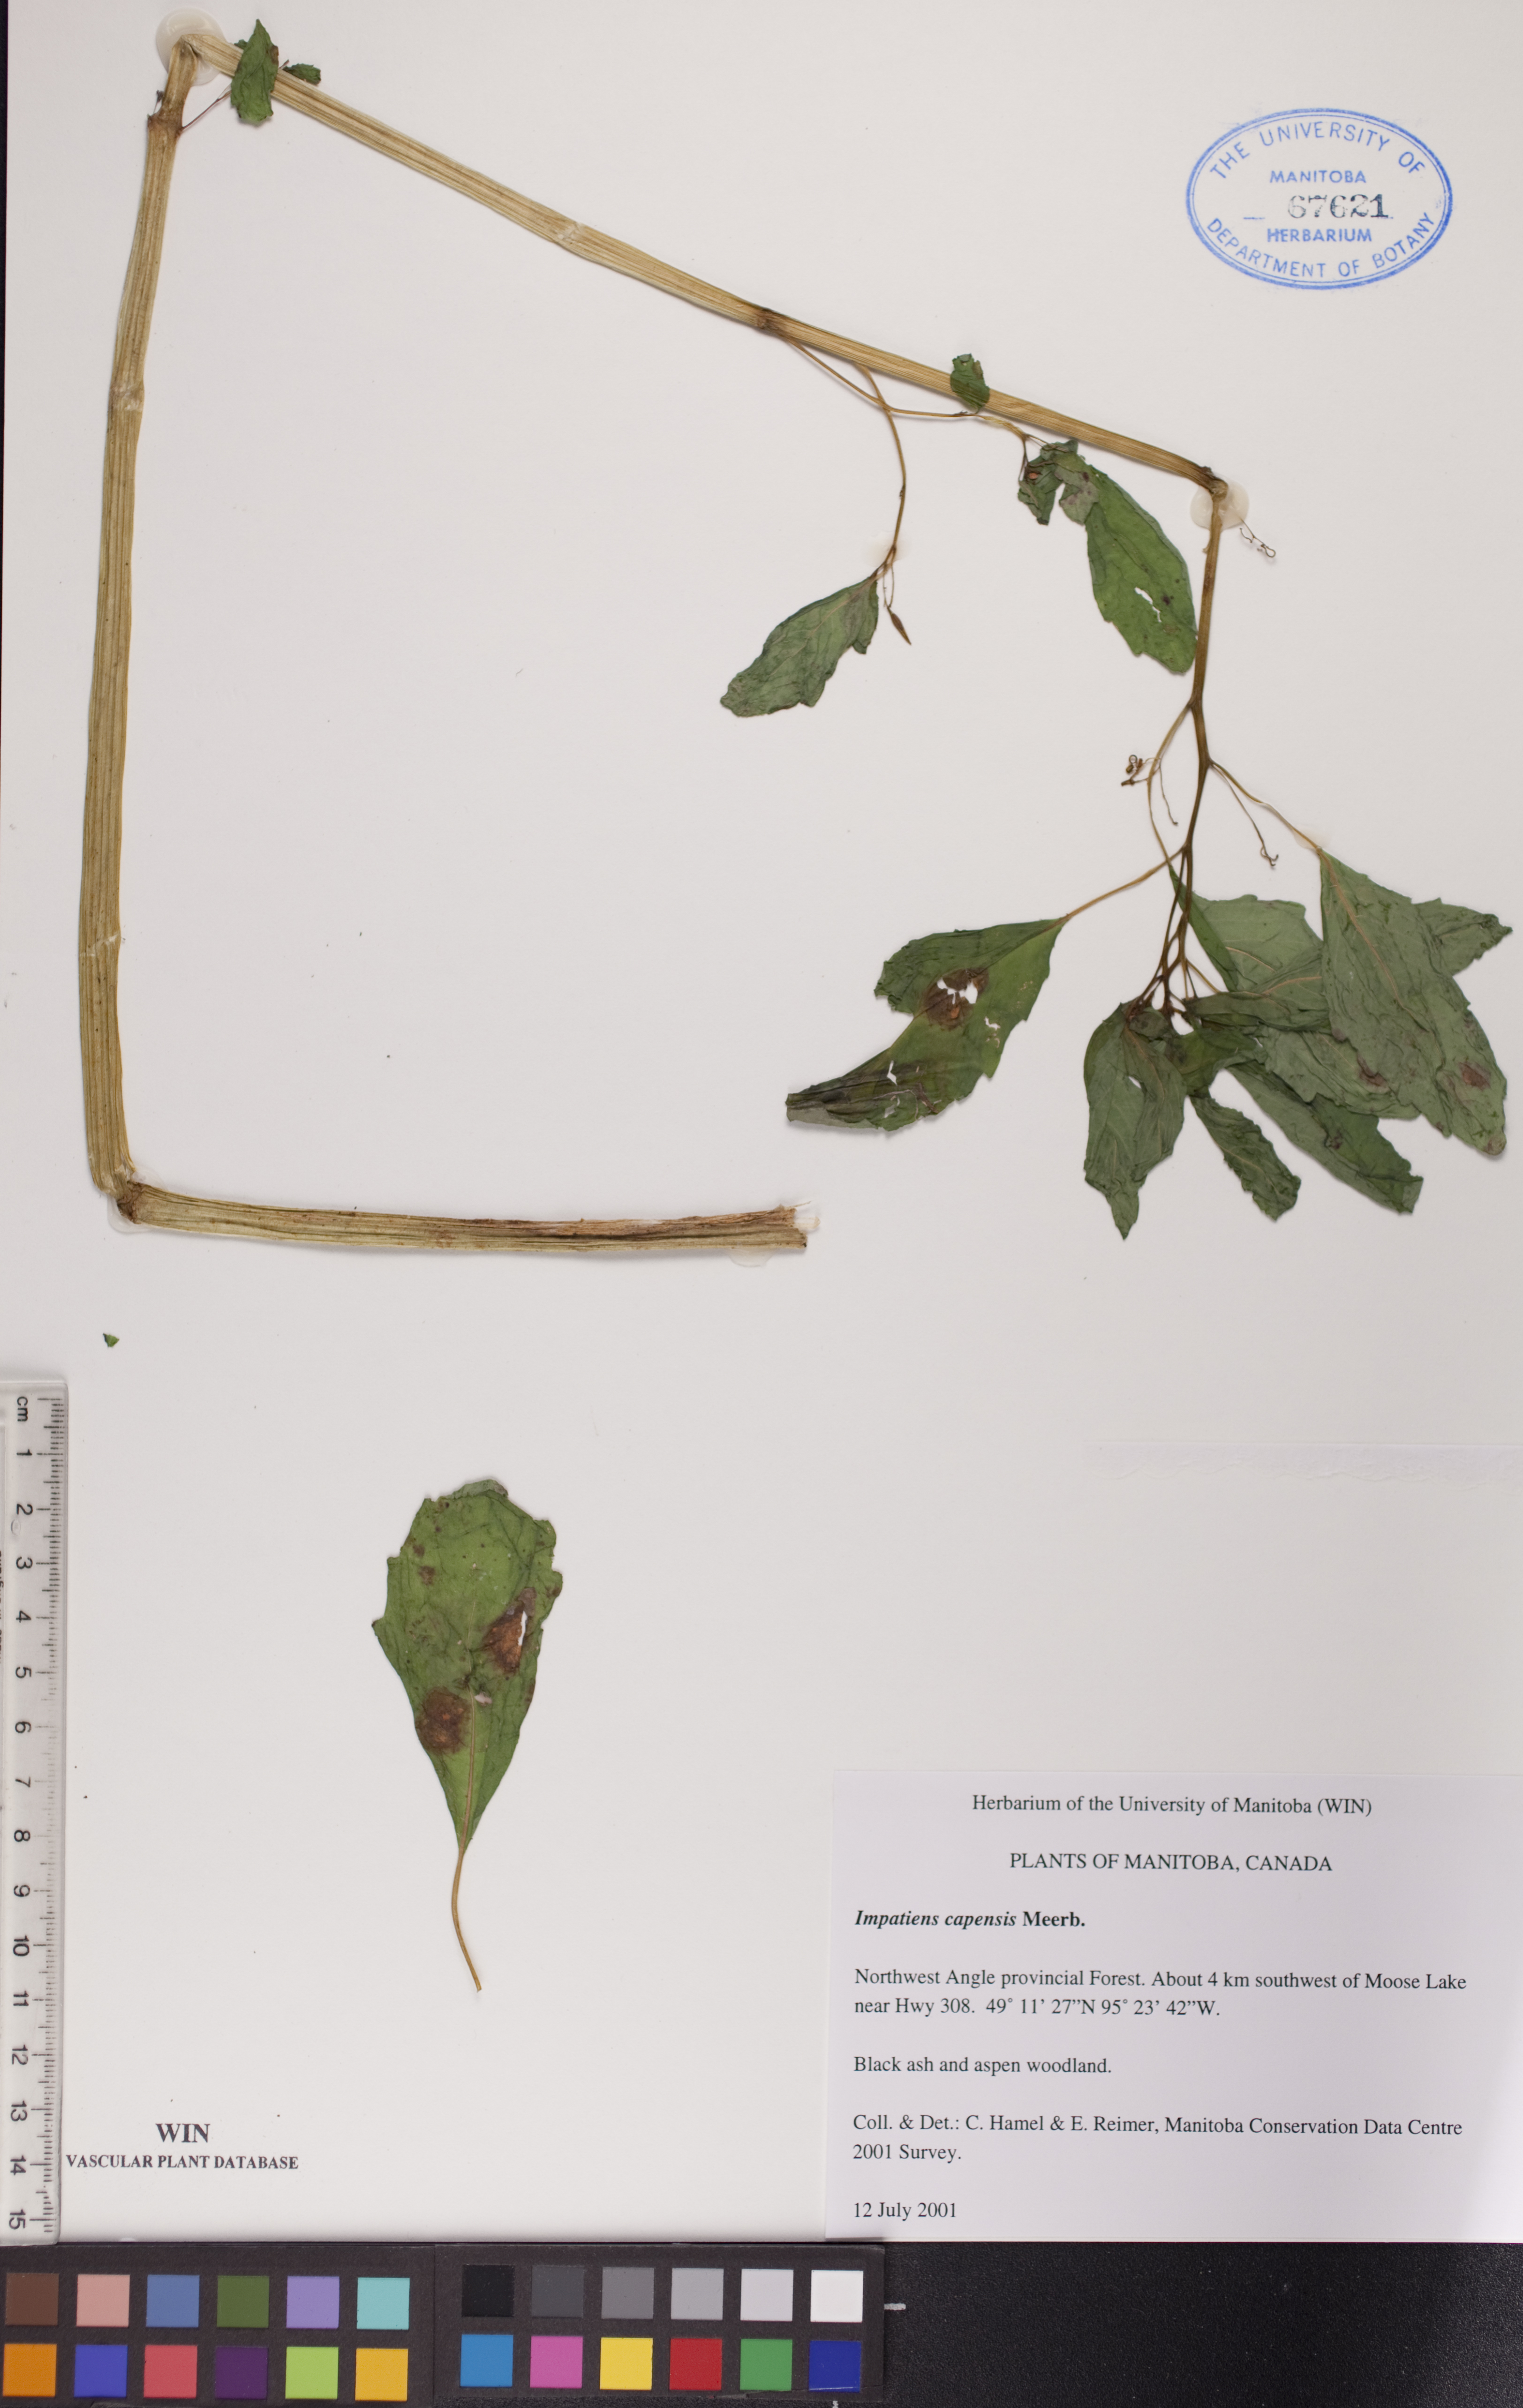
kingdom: Plantae
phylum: Tracheophyta
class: Magnoliopsida
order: Ericales
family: Balsaminaceae
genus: Impatiens
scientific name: Impatiens capensis
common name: Orange balsam
